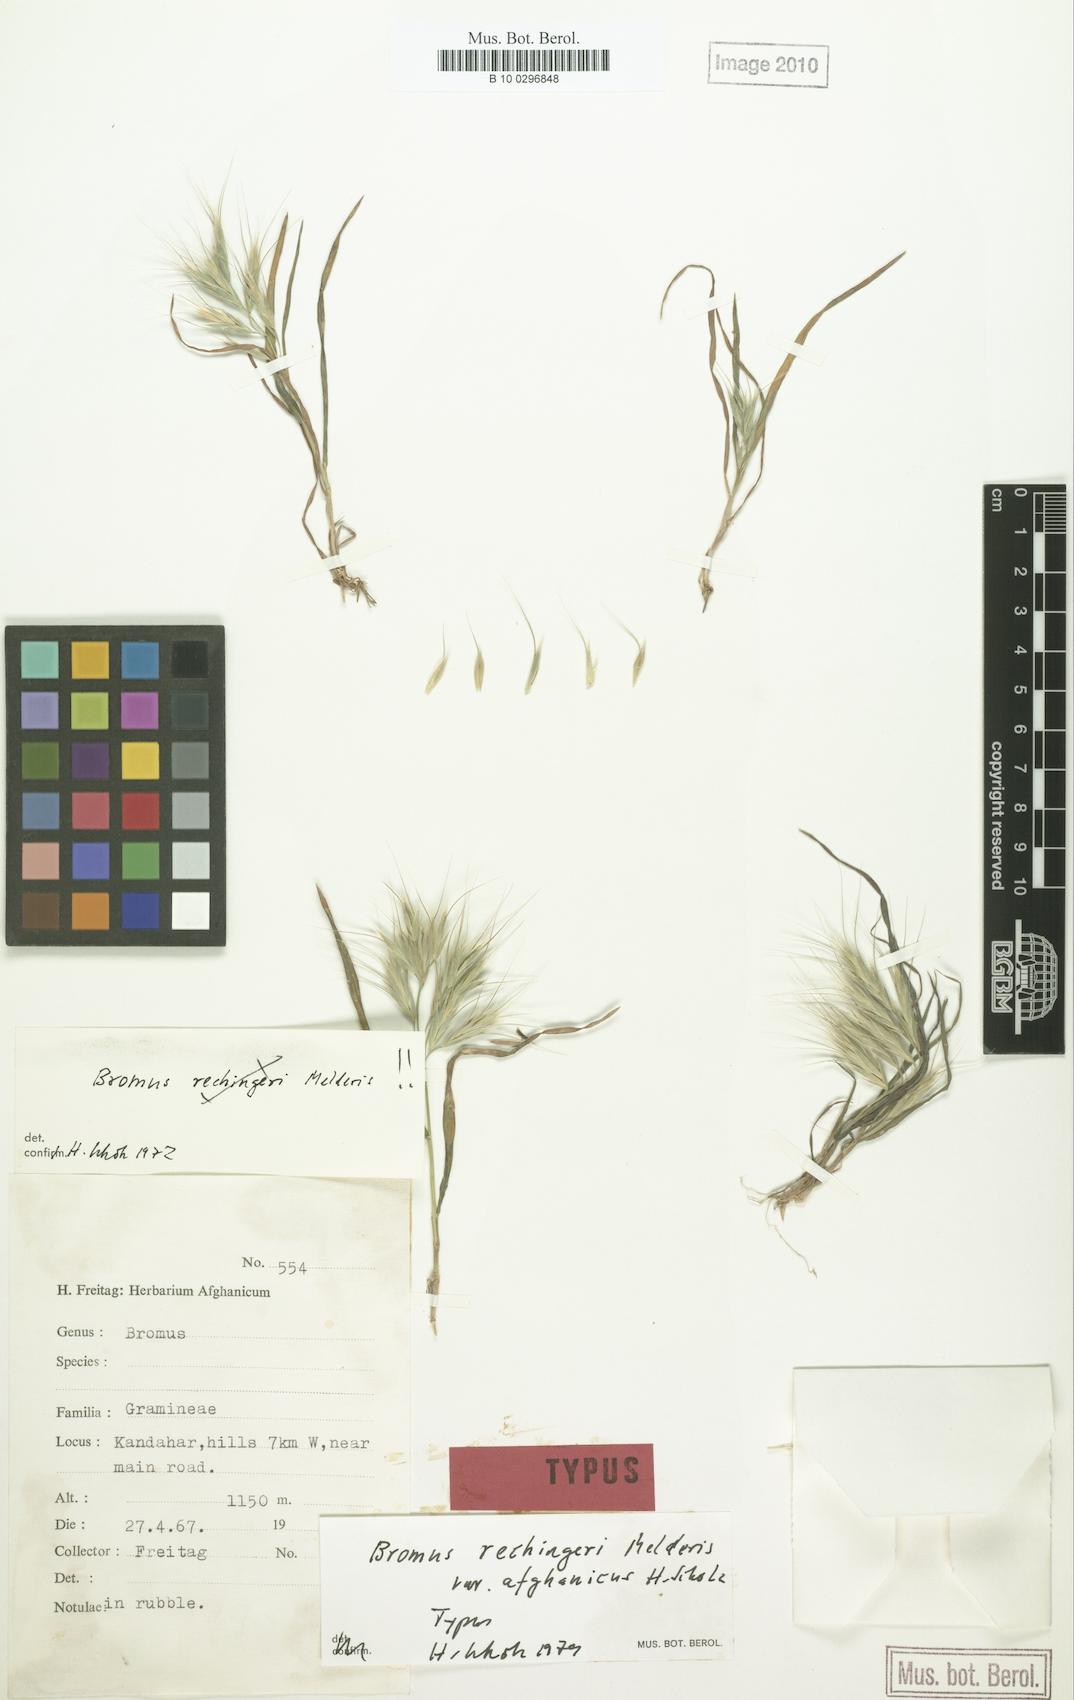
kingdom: Plantae
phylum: Tracheophyta
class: Liliopsida
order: Poales
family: Poaceae
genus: Bromus
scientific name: Bromus pulchellus
